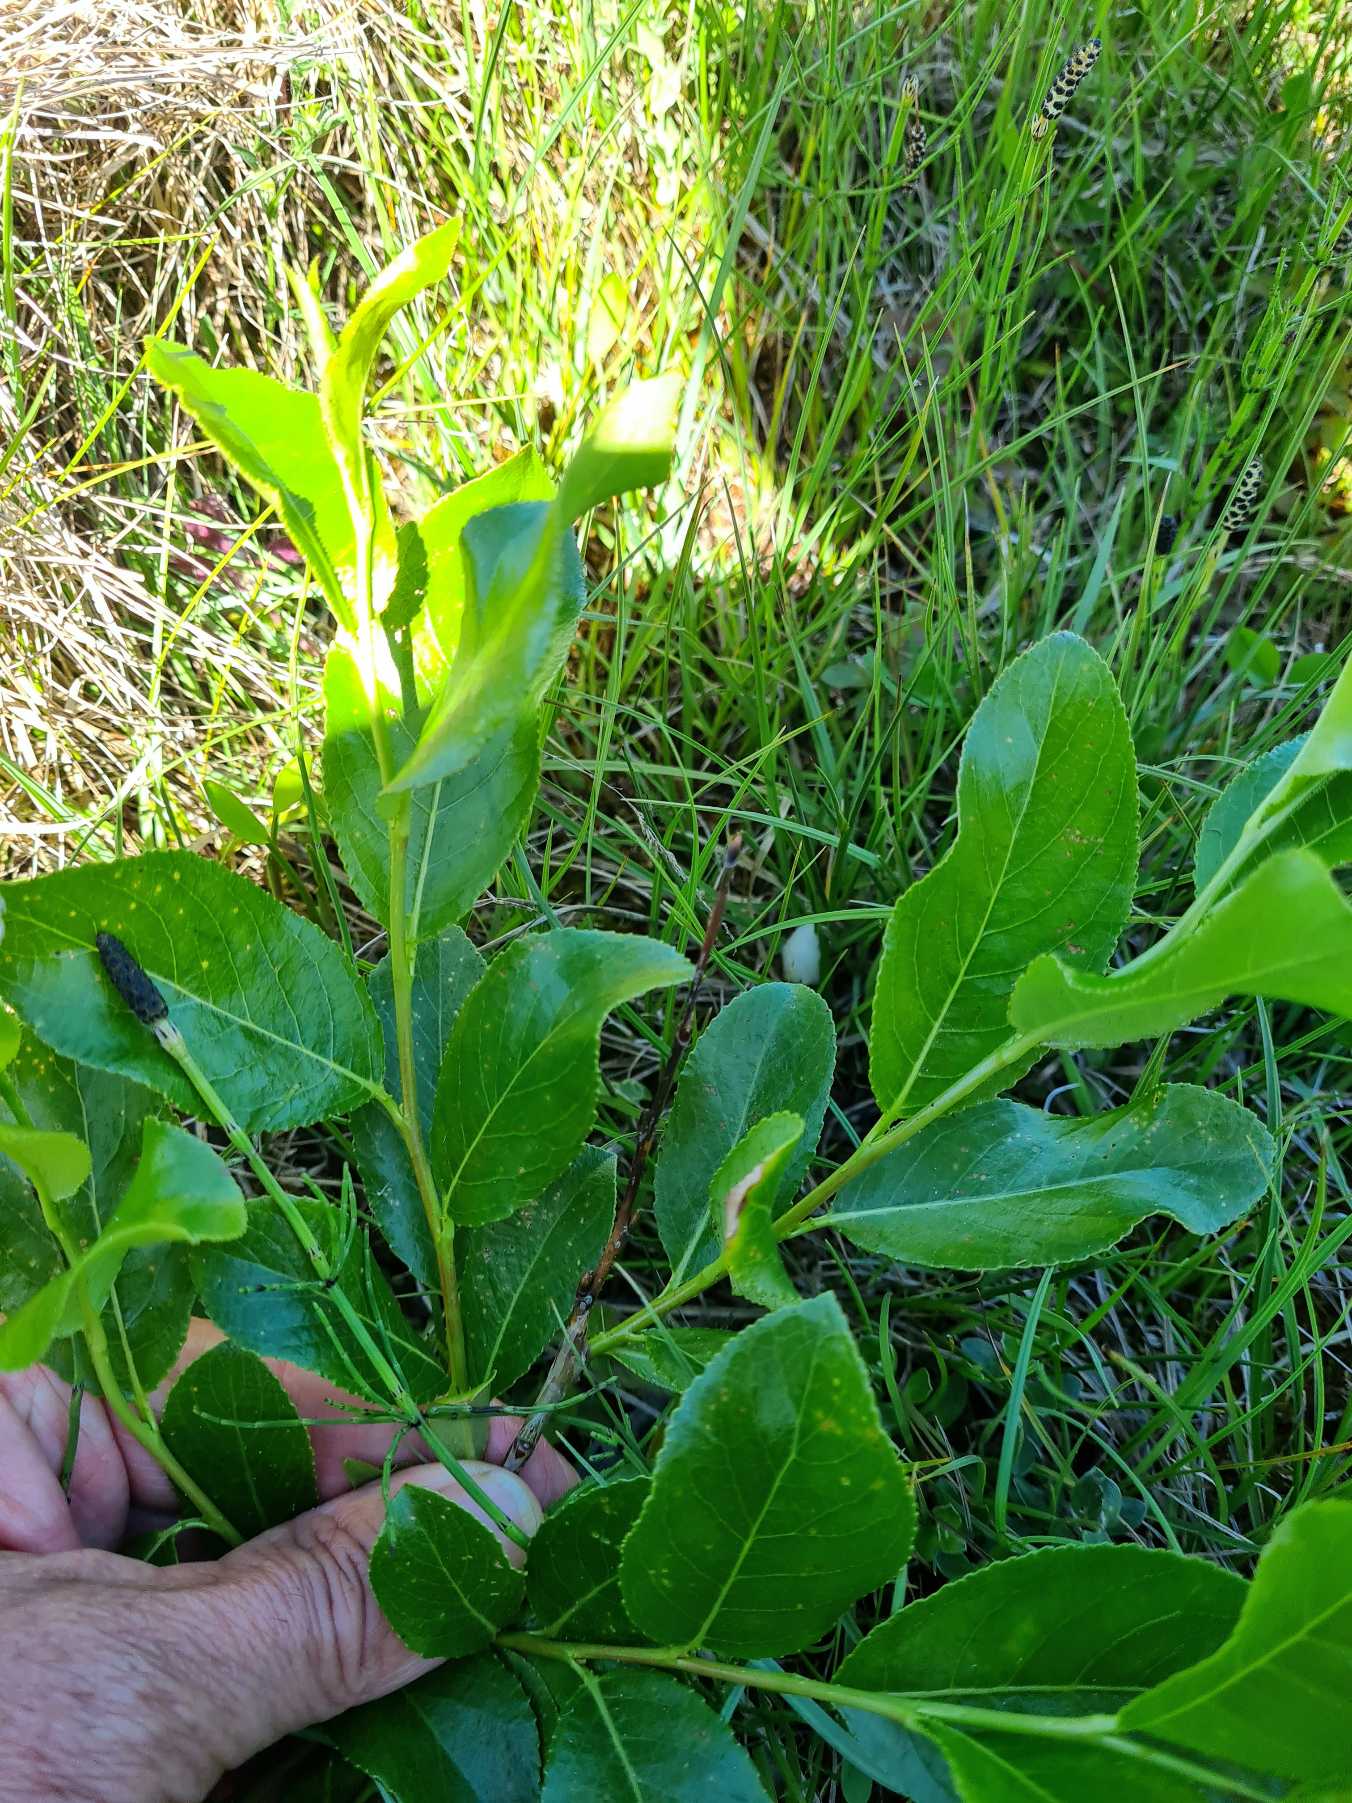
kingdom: Plantae
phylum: Tracheophyta
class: Magnoliopsida
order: Malpighiales
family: Salicaceae
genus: Salix
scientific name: Salix pentandra
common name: Femhannet pil
